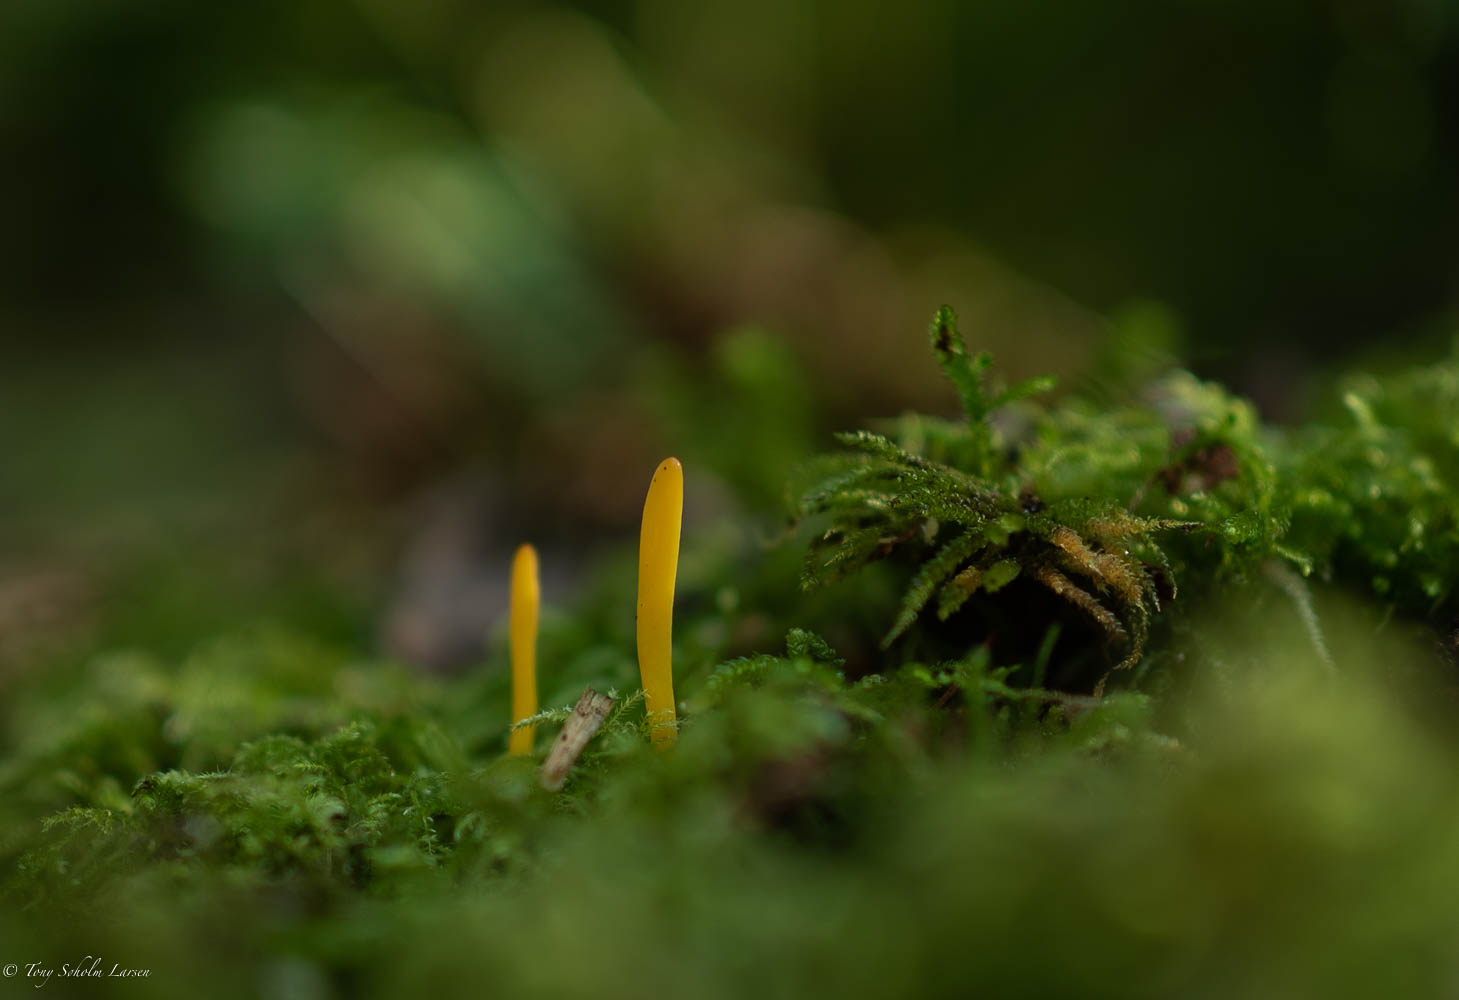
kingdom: Fungi
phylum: Basidiomycota
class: Agaricomycetes
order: Agaricales
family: Clavariaceae
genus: Clavulinopsis
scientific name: Clavulinopsis
